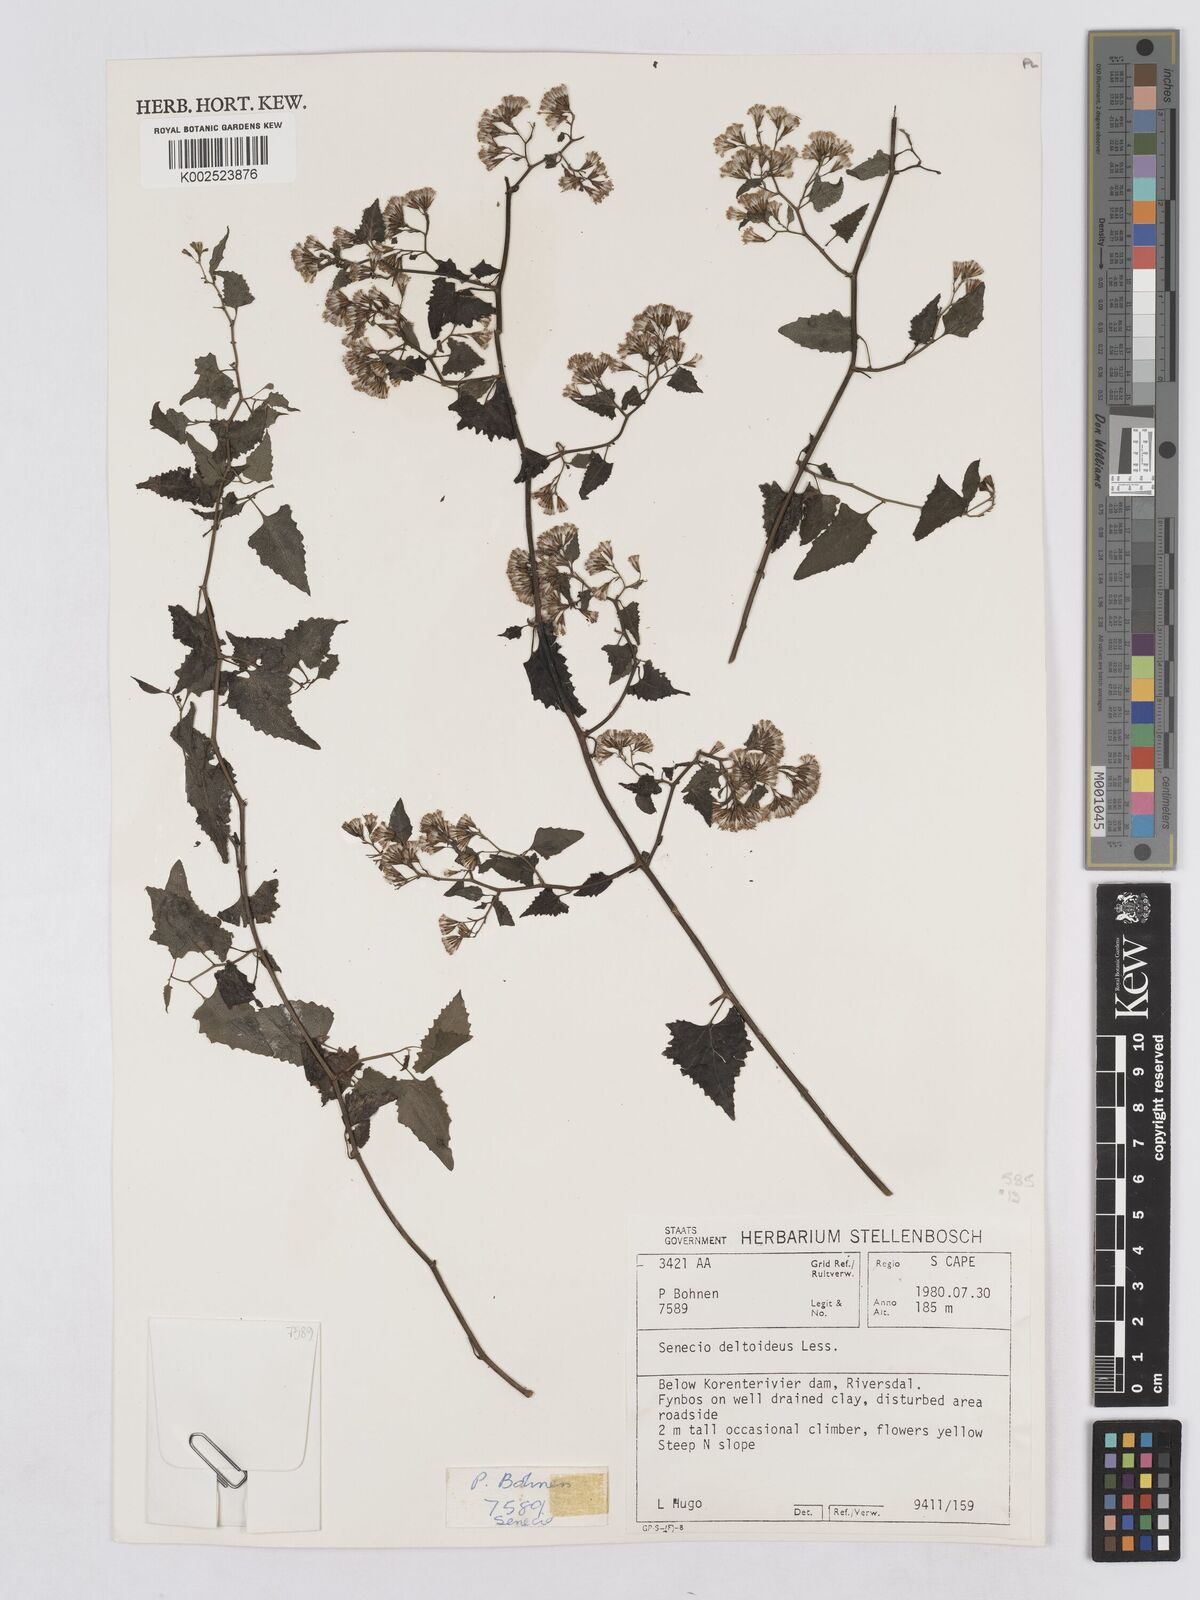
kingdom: Plantae
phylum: Tracheophyta
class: Magnoliopsida
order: Asterales
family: Asteraceae
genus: Senecio
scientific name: Senecio deltoideus
